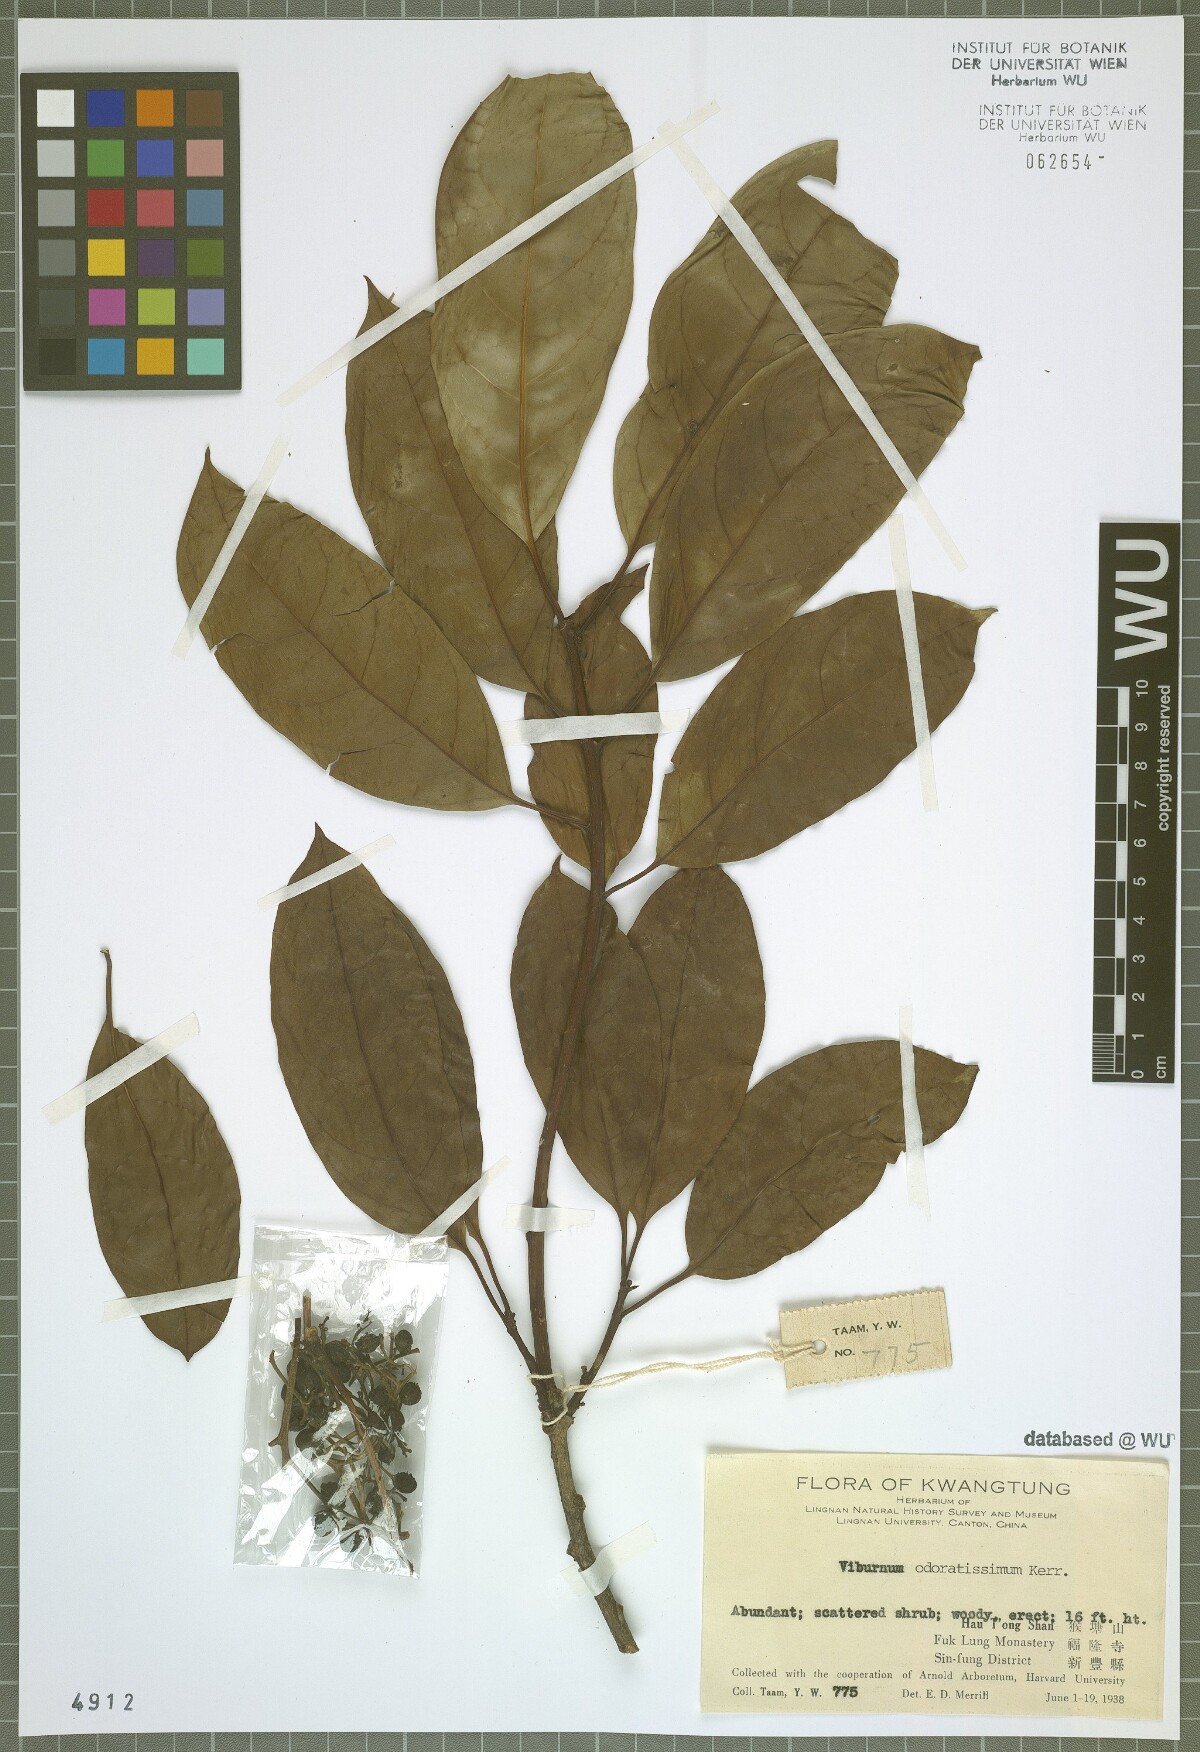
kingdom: Plantae
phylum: Tracheophyta
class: Magnoliopsida
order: Dipsacales
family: Viburnaceae
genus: Viburnum
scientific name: Viburnum odoratissimum
